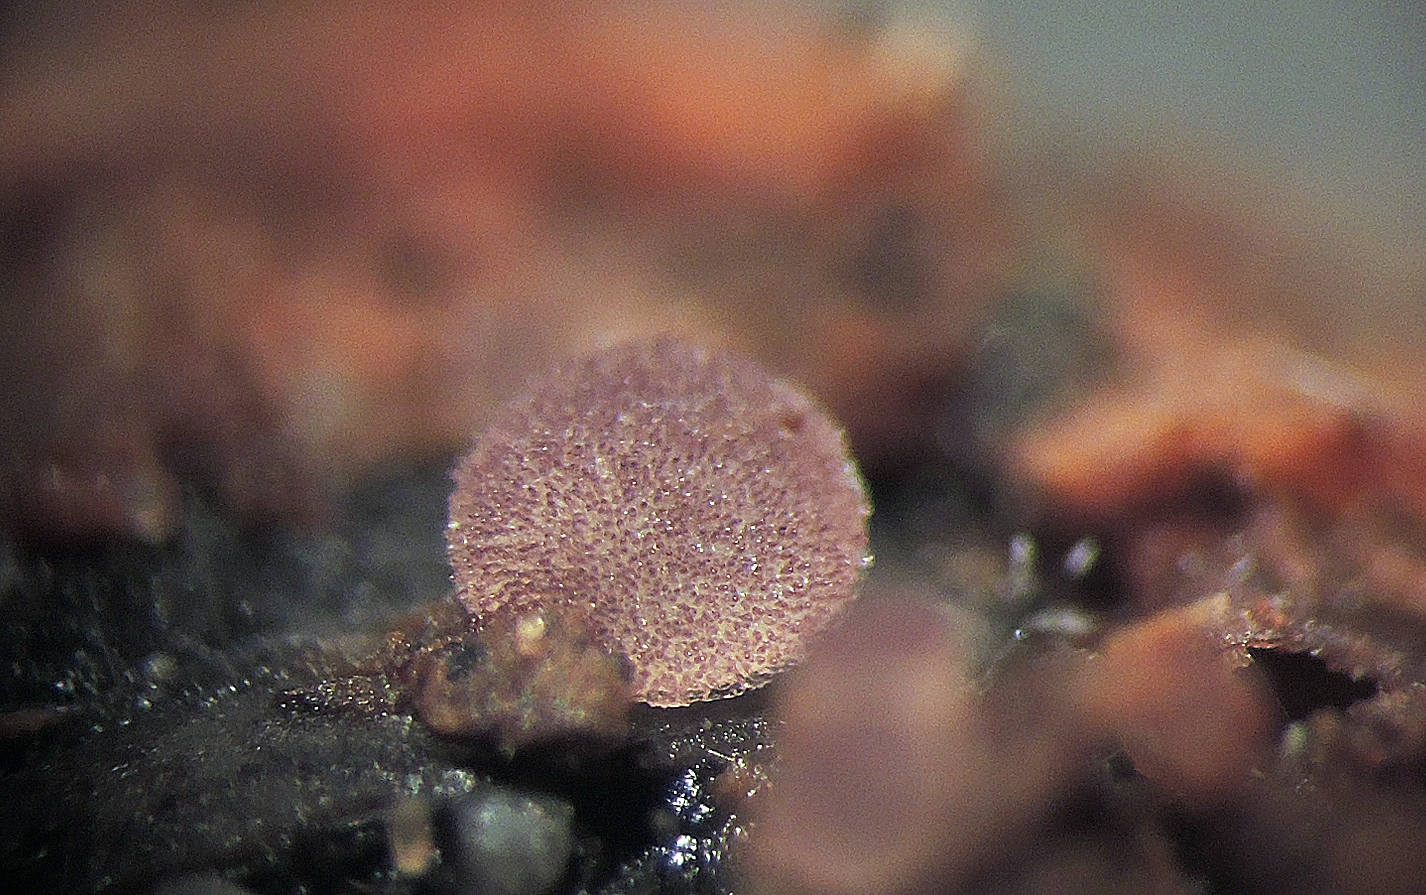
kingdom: Fungi
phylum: Ascomycota
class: Pezizomycetes
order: Pezizales
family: Ascobolaceae
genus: Ascobolus
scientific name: Ascobolus brassicae
